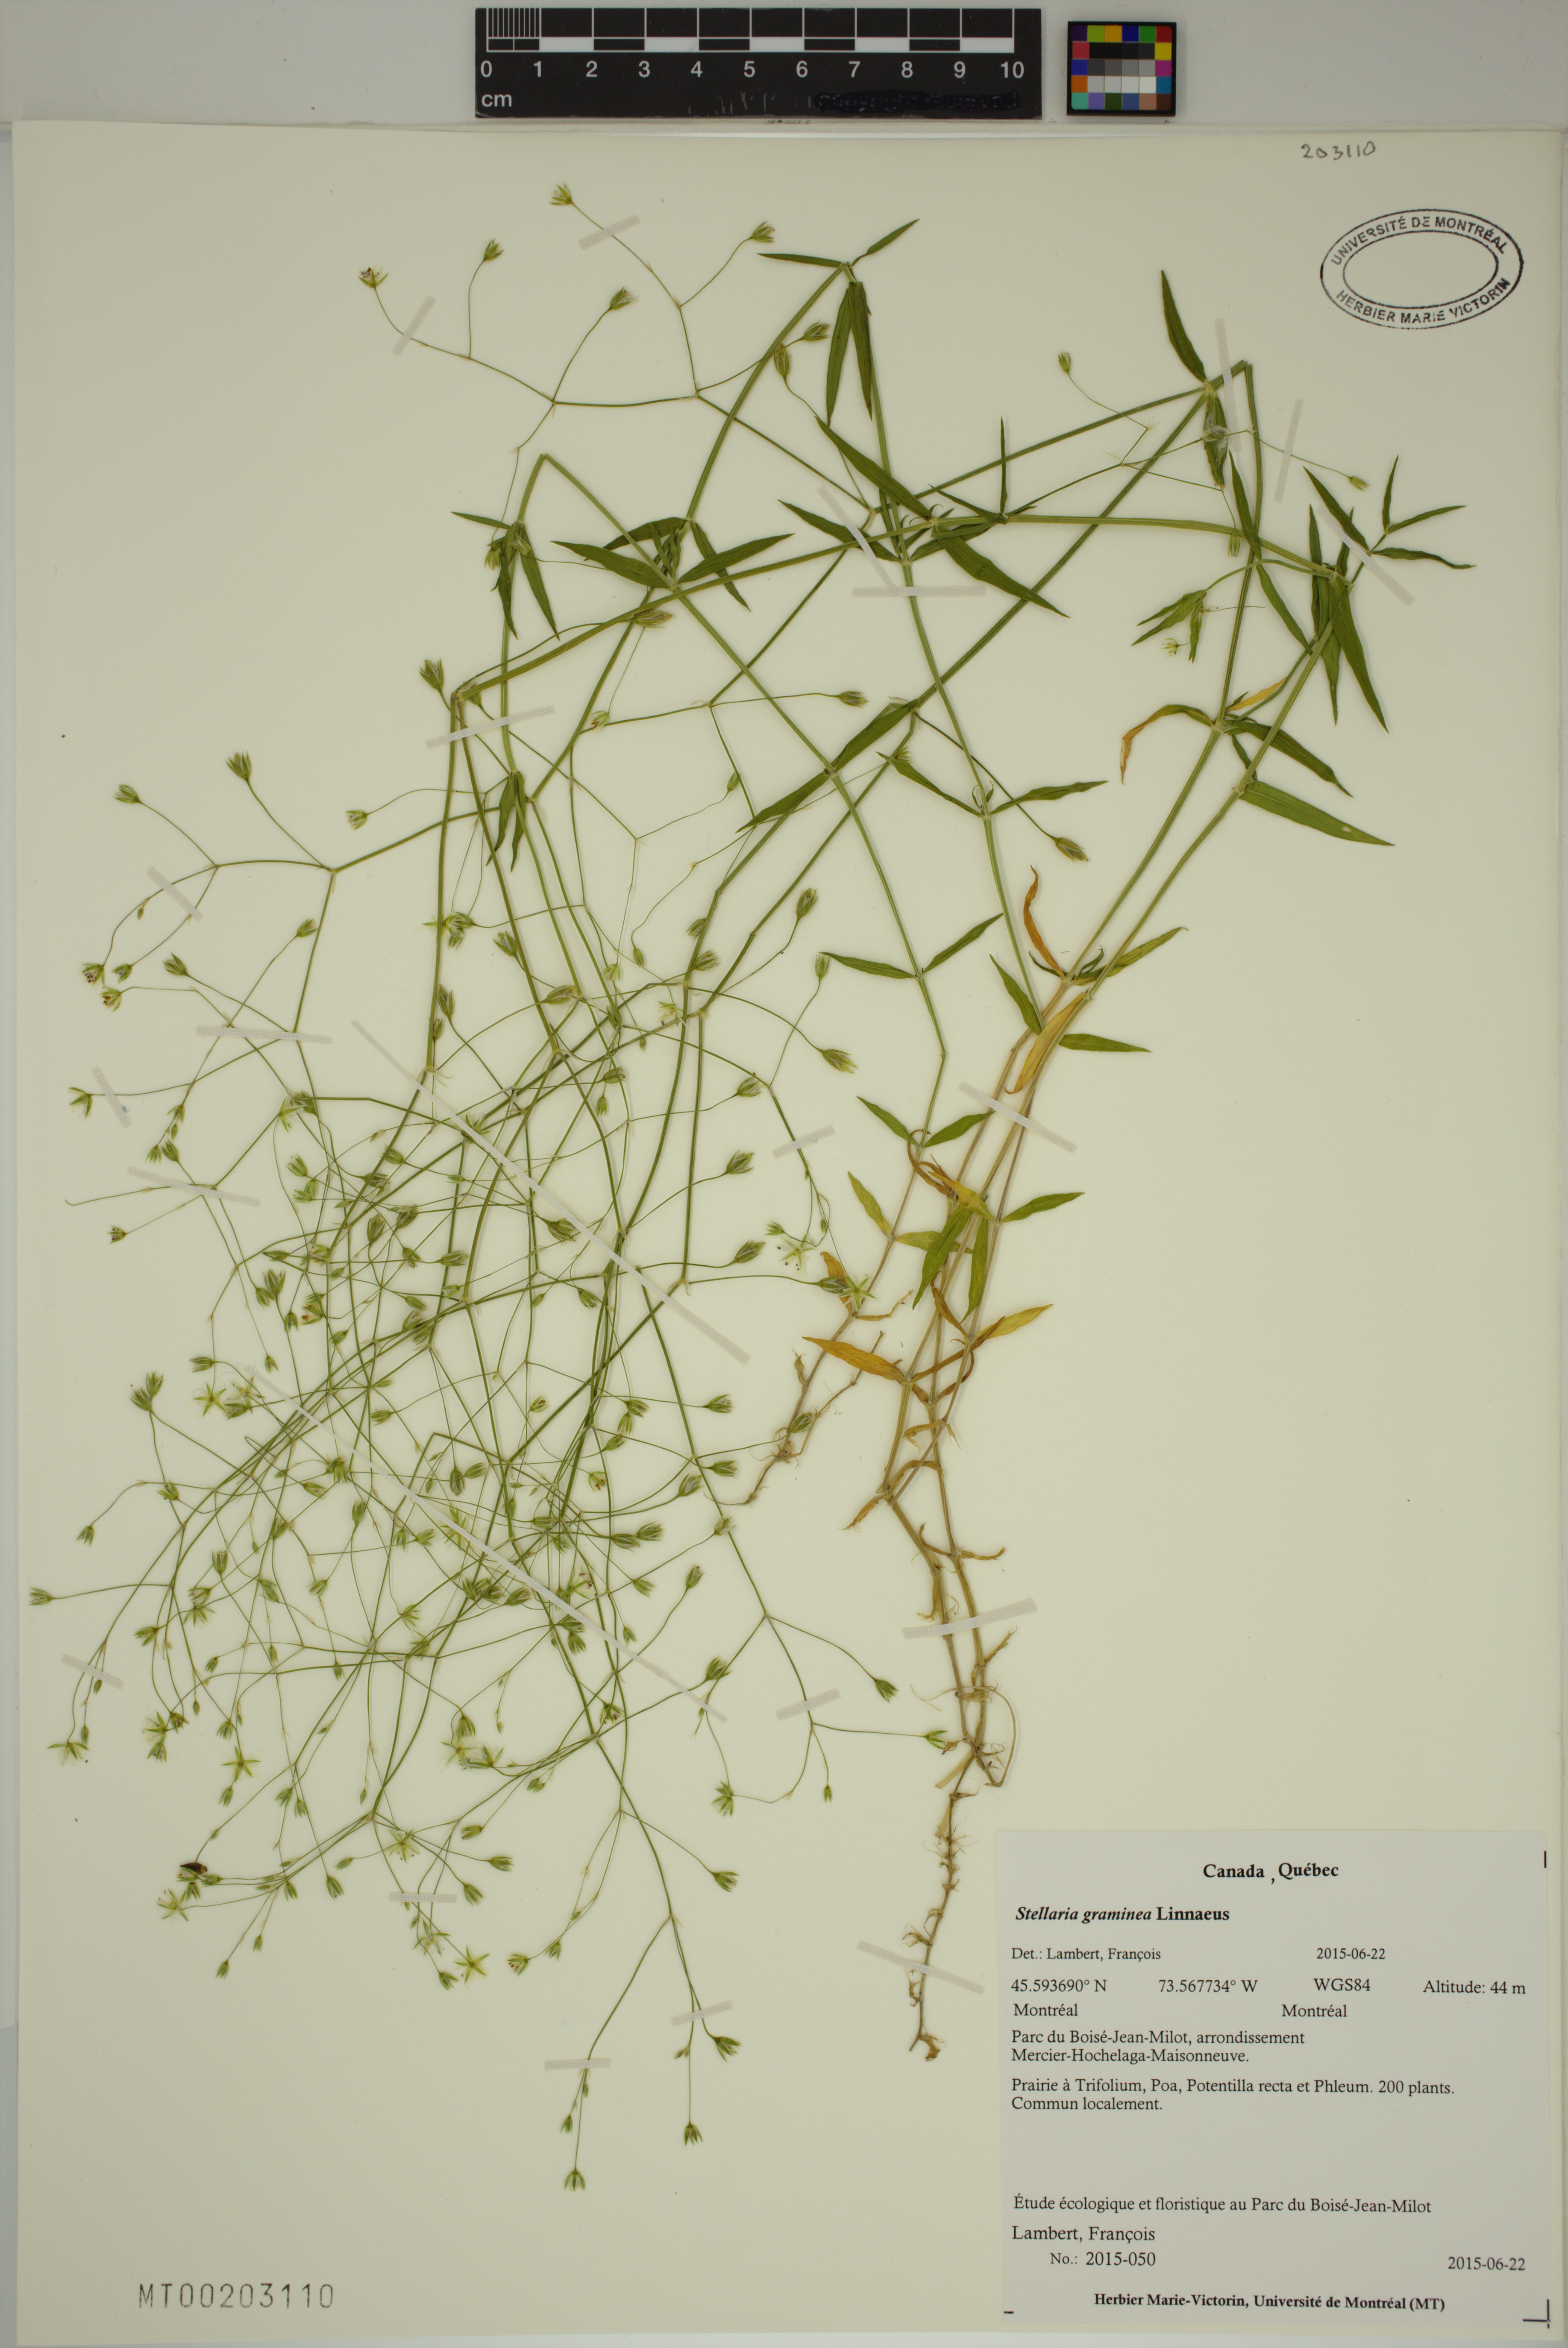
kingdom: Plantae
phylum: Tracheophyta
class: Magnoliopsida
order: Caryophyllales
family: Caryophyllaceae
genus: Stellaria
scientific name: Stellaria graminea
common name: Grass-like starwort
